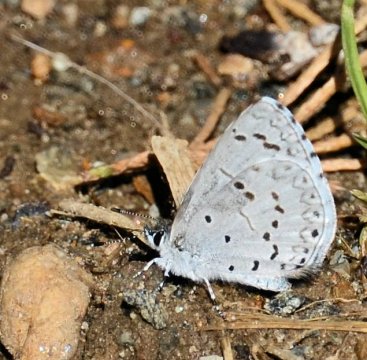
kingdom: Animalia
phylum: Arthropoda
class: Insecta
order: Lepidoptera
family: Lycaenidae
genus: Celastrina
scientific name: Celastrina ladon
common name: Spring Azure
